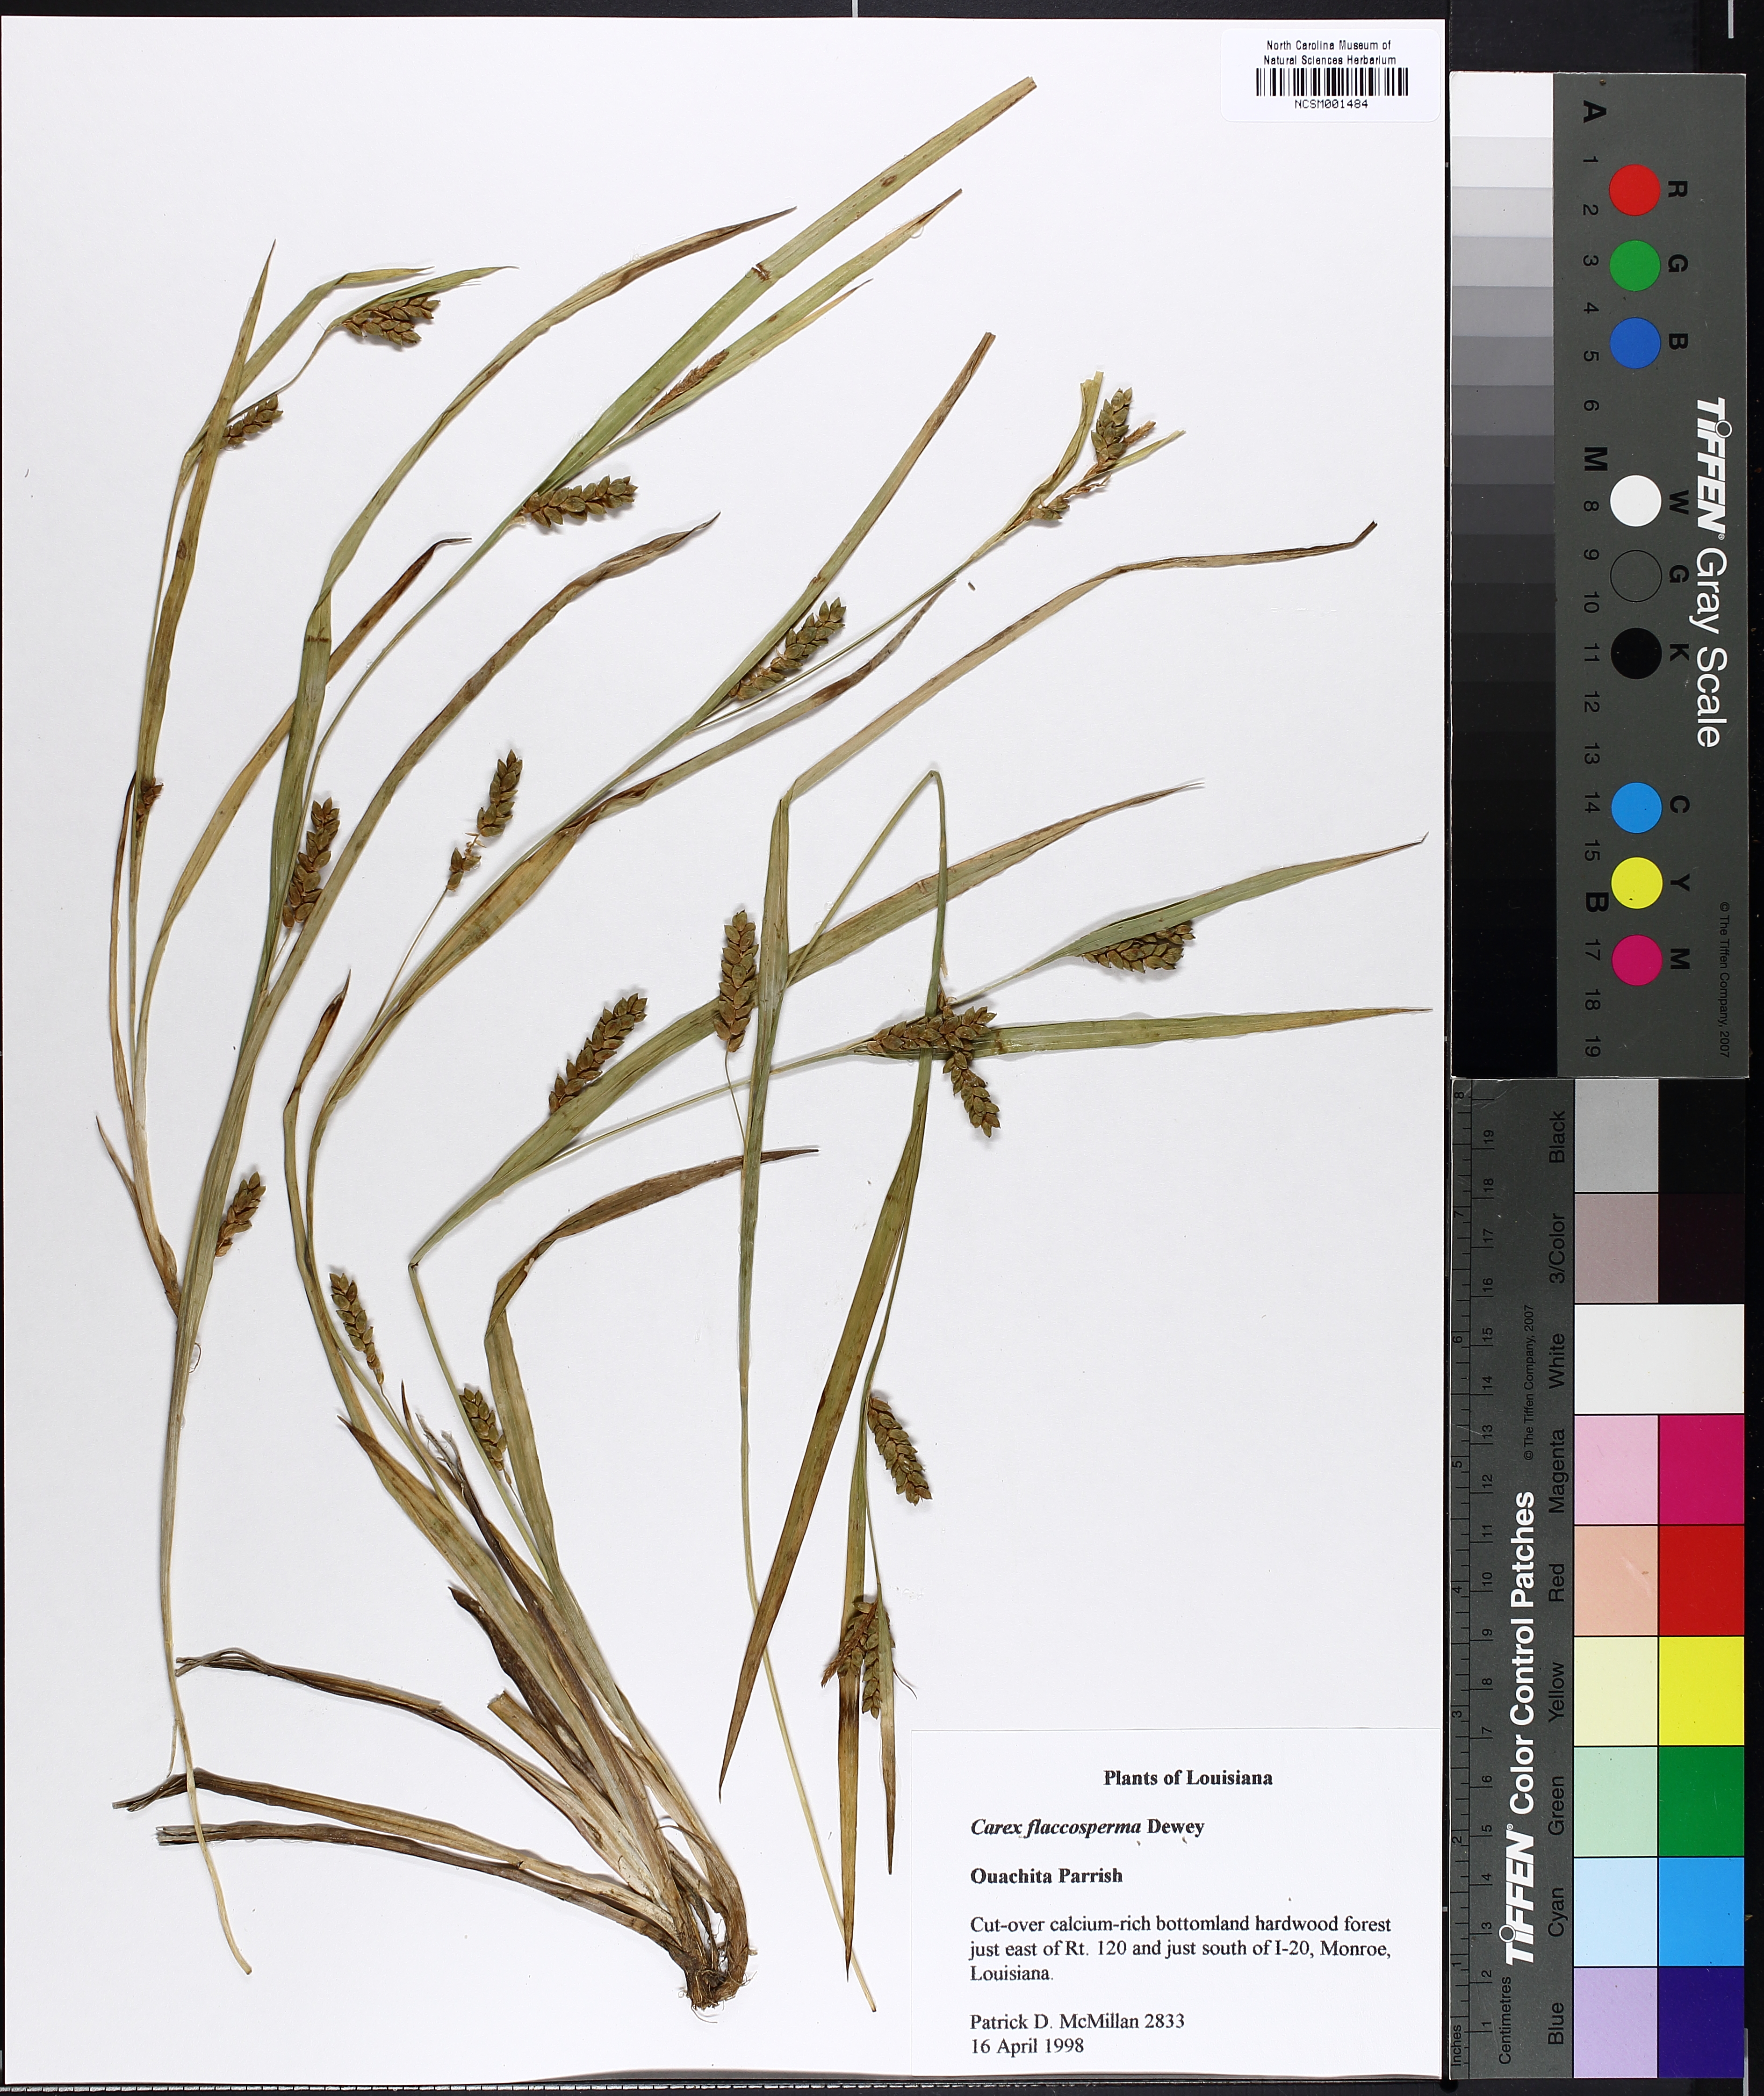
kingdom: Plantae
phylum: Tracheophyta
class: Liliopsida
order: Poales
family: Cyperaceae
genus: Carex
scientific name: Carex flaccosperma
